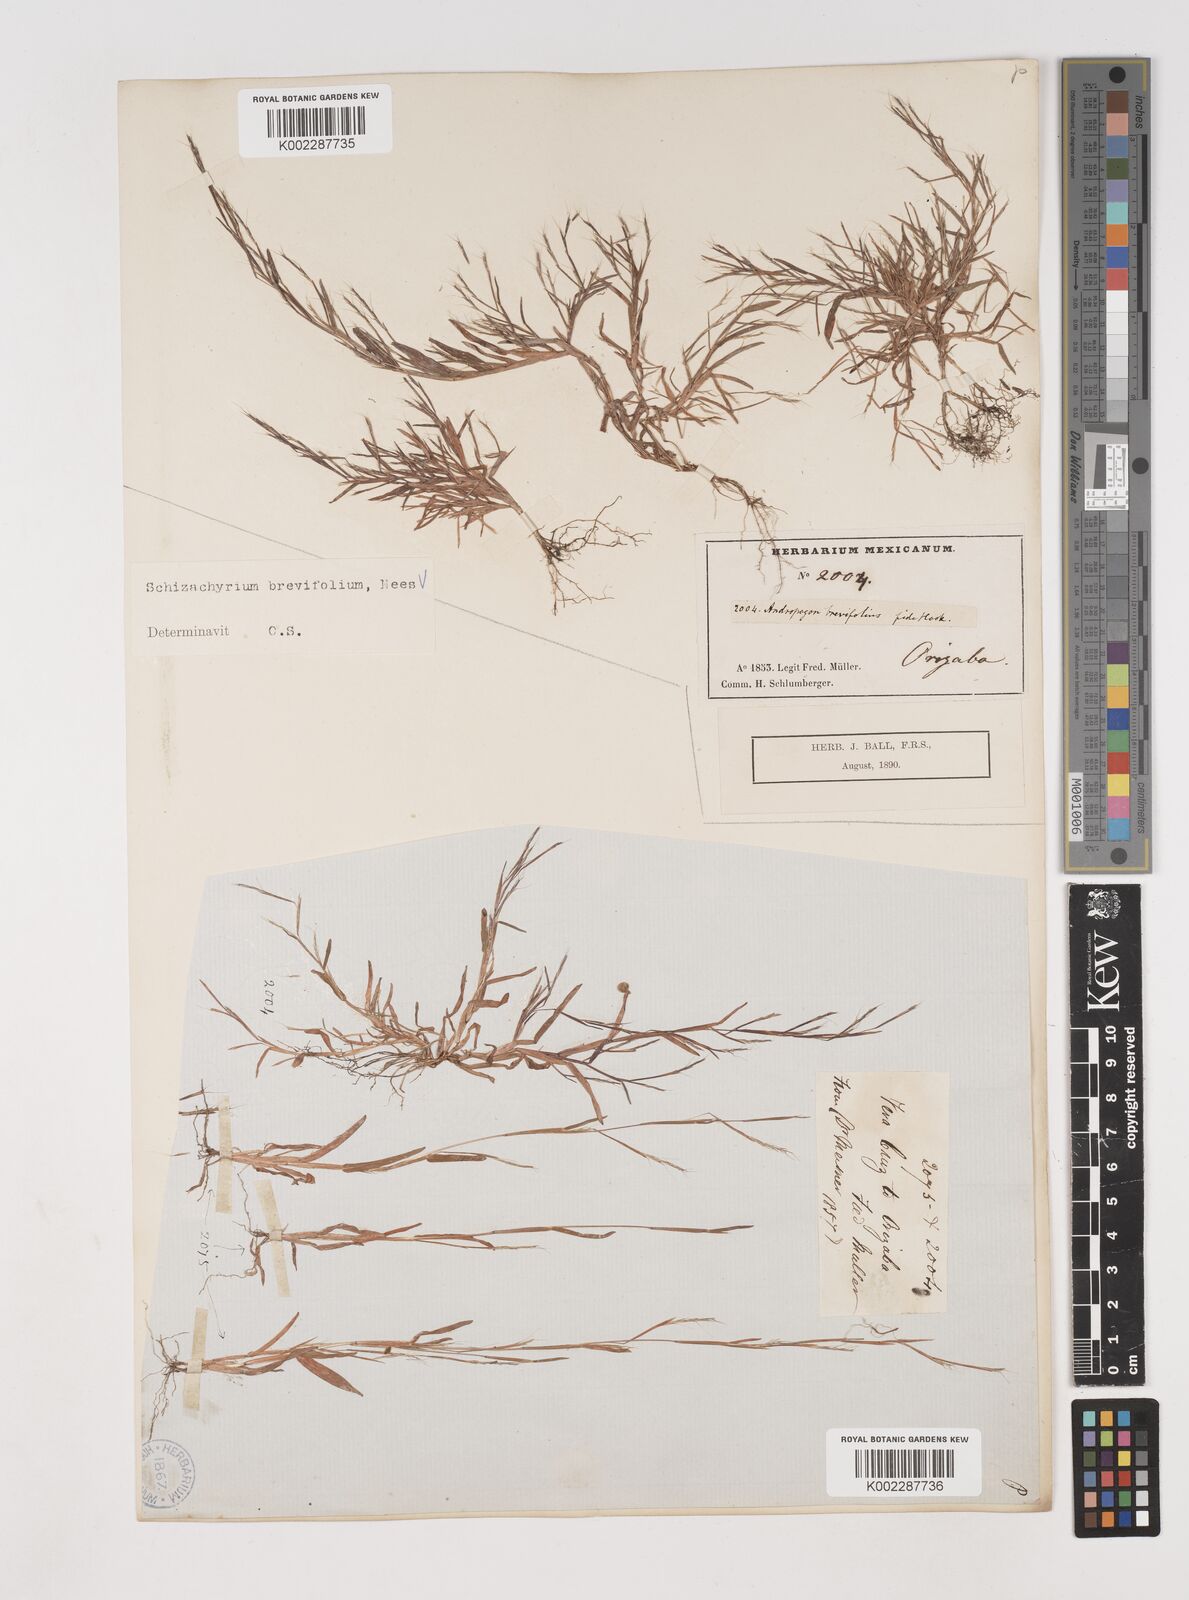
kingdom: Plantae
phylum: Tracheophyta
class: Liliopsida
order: Poales
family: Poaceae
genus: Schizachyrium
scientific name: Schizachyrium brevifolium
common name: Serillo dulce
